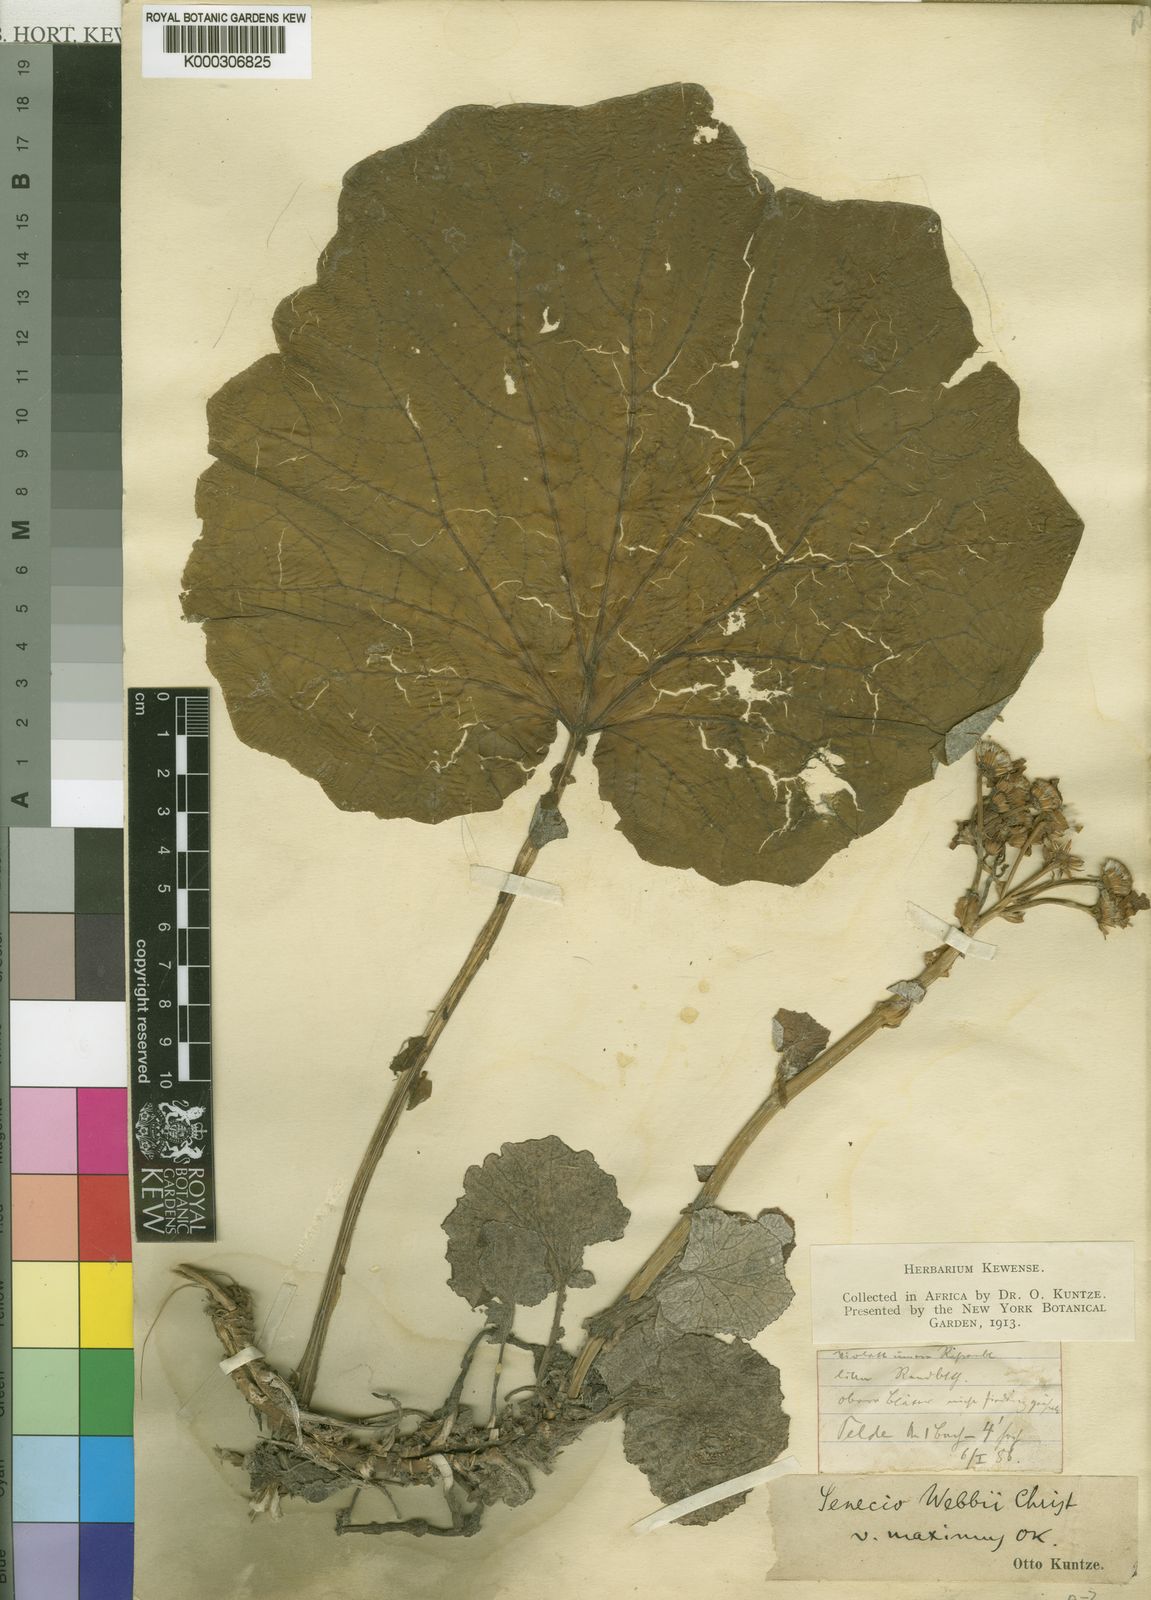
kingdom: Plantae
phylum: Tracheophyta
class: Magnoliopsida
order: Asterales
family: Asteraceae
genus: Pericallis
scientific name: Pericallis webbii
